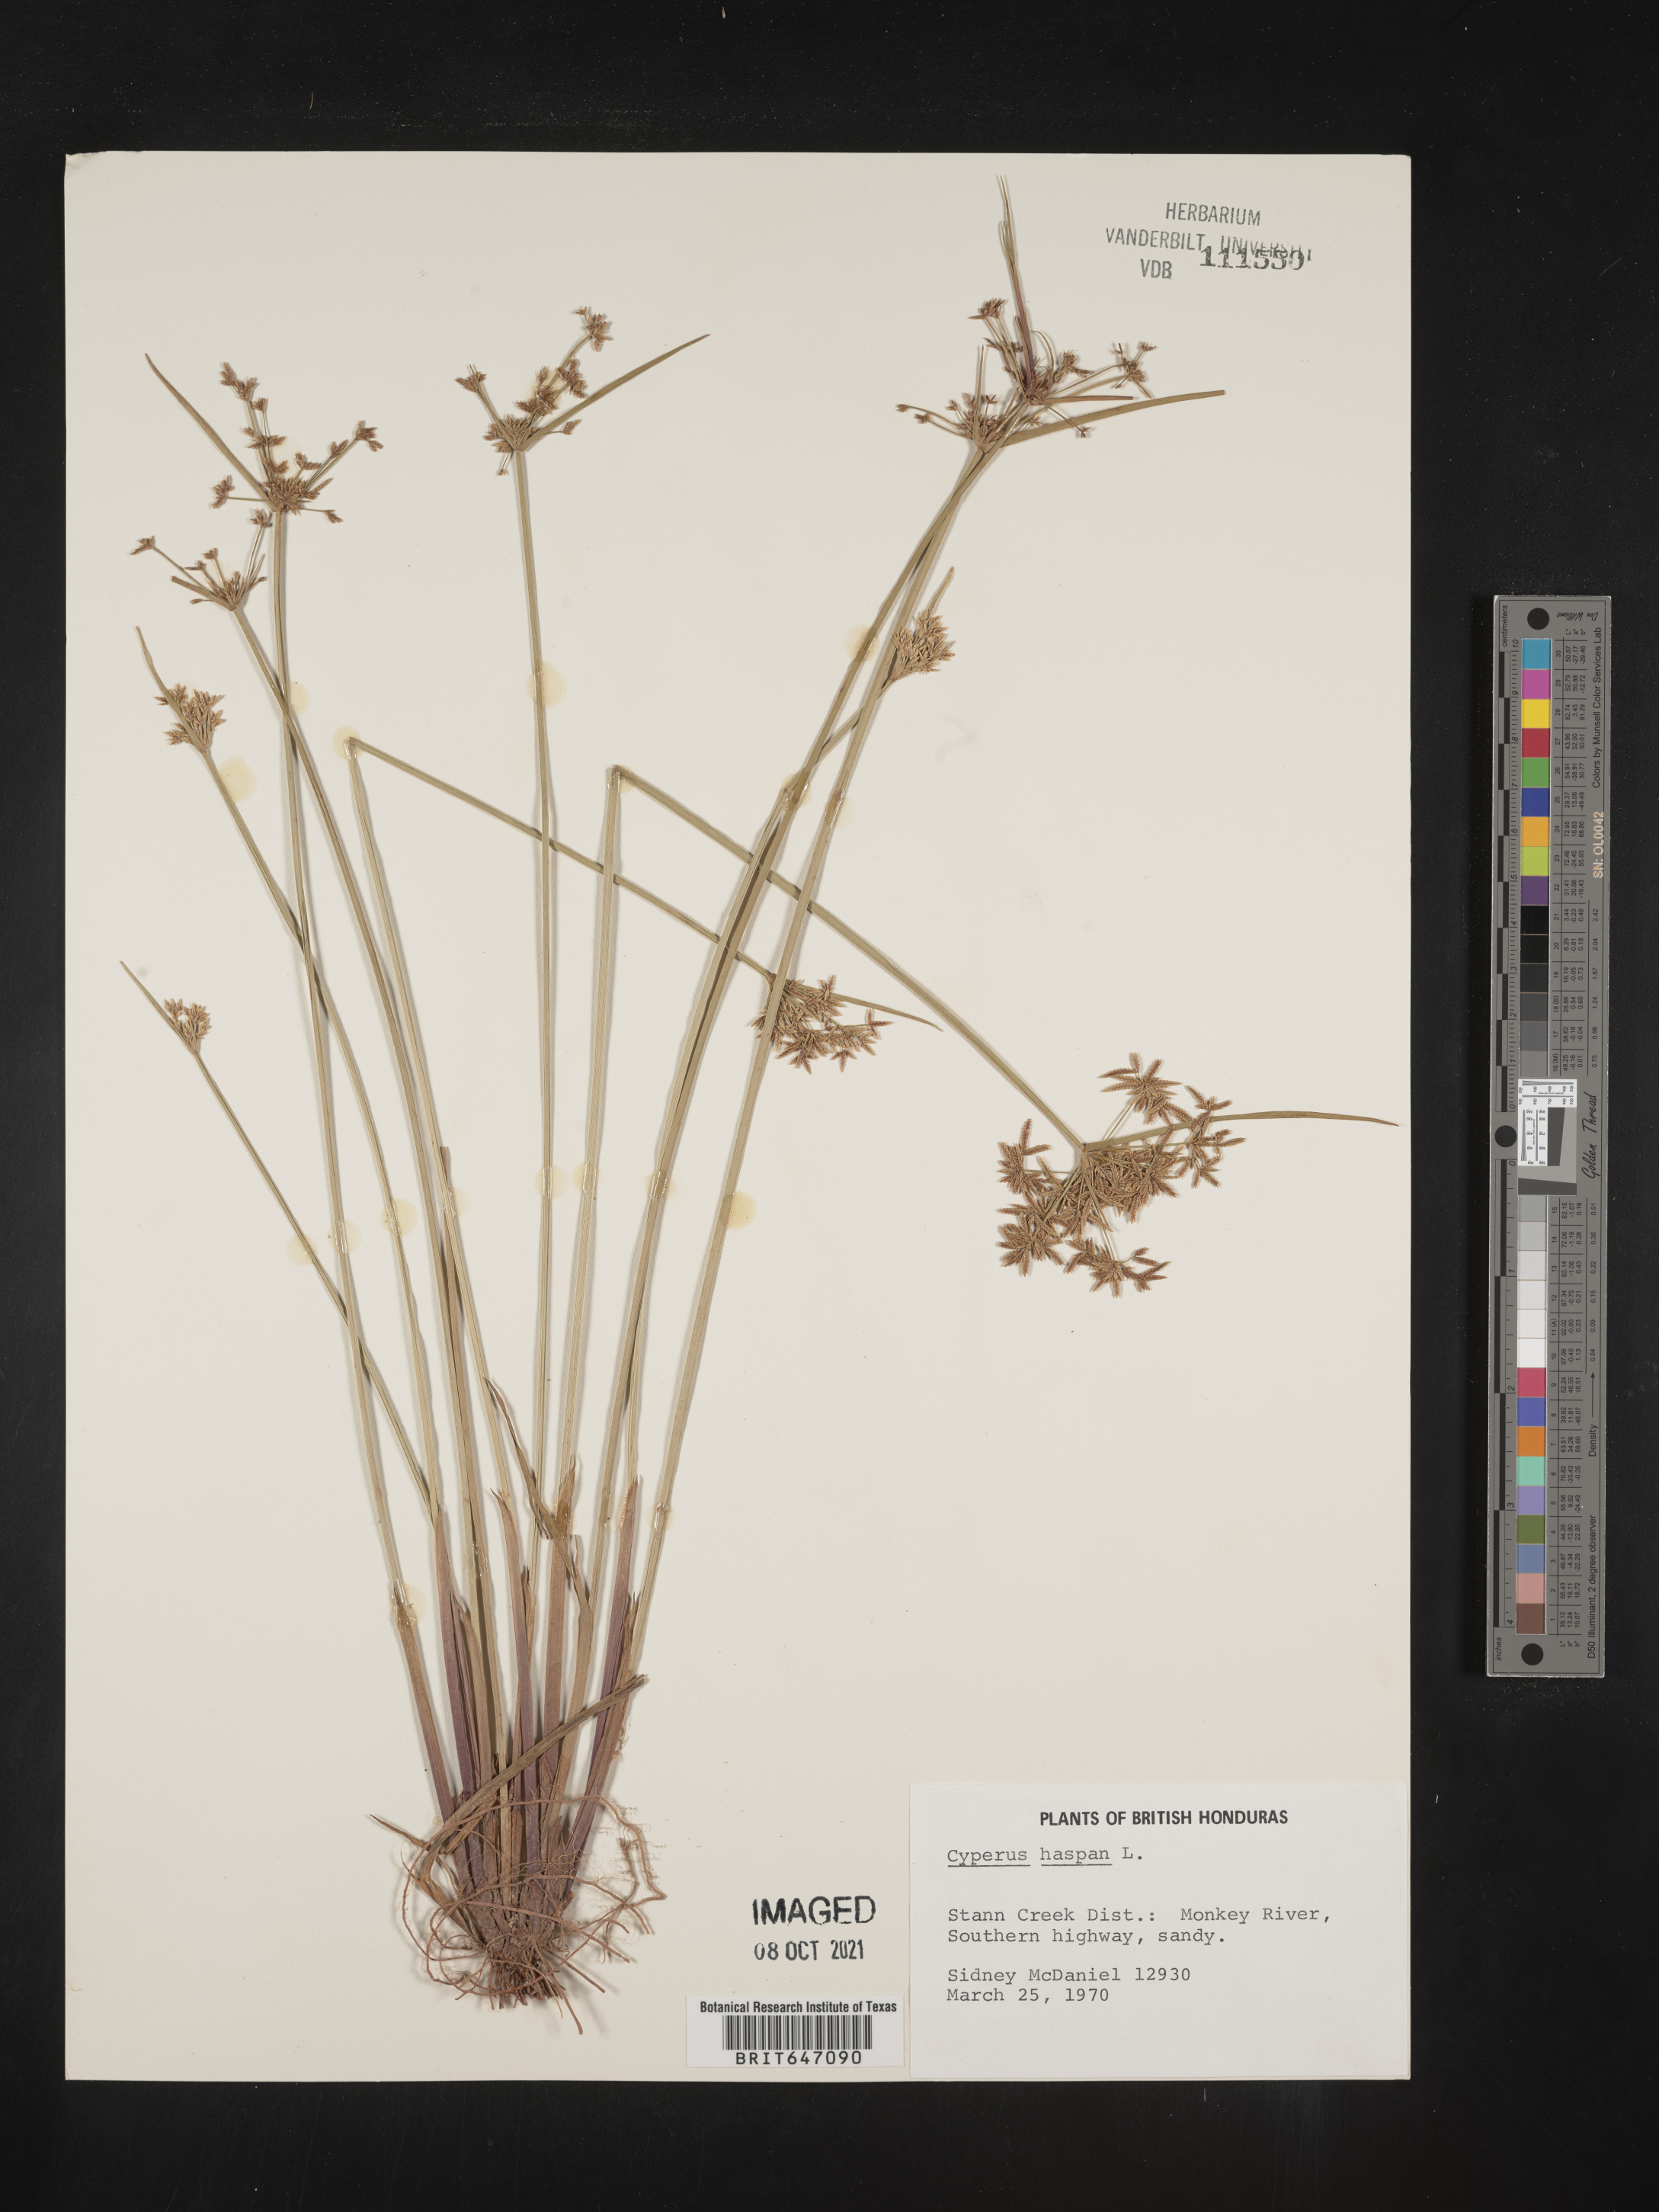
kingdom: Plantae
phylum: Tracheophyta
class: Liliopsida
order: Poales
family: Cyperaceae
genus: Cyperus
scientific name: Cyperus haspan
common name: Haspan flatsedge
